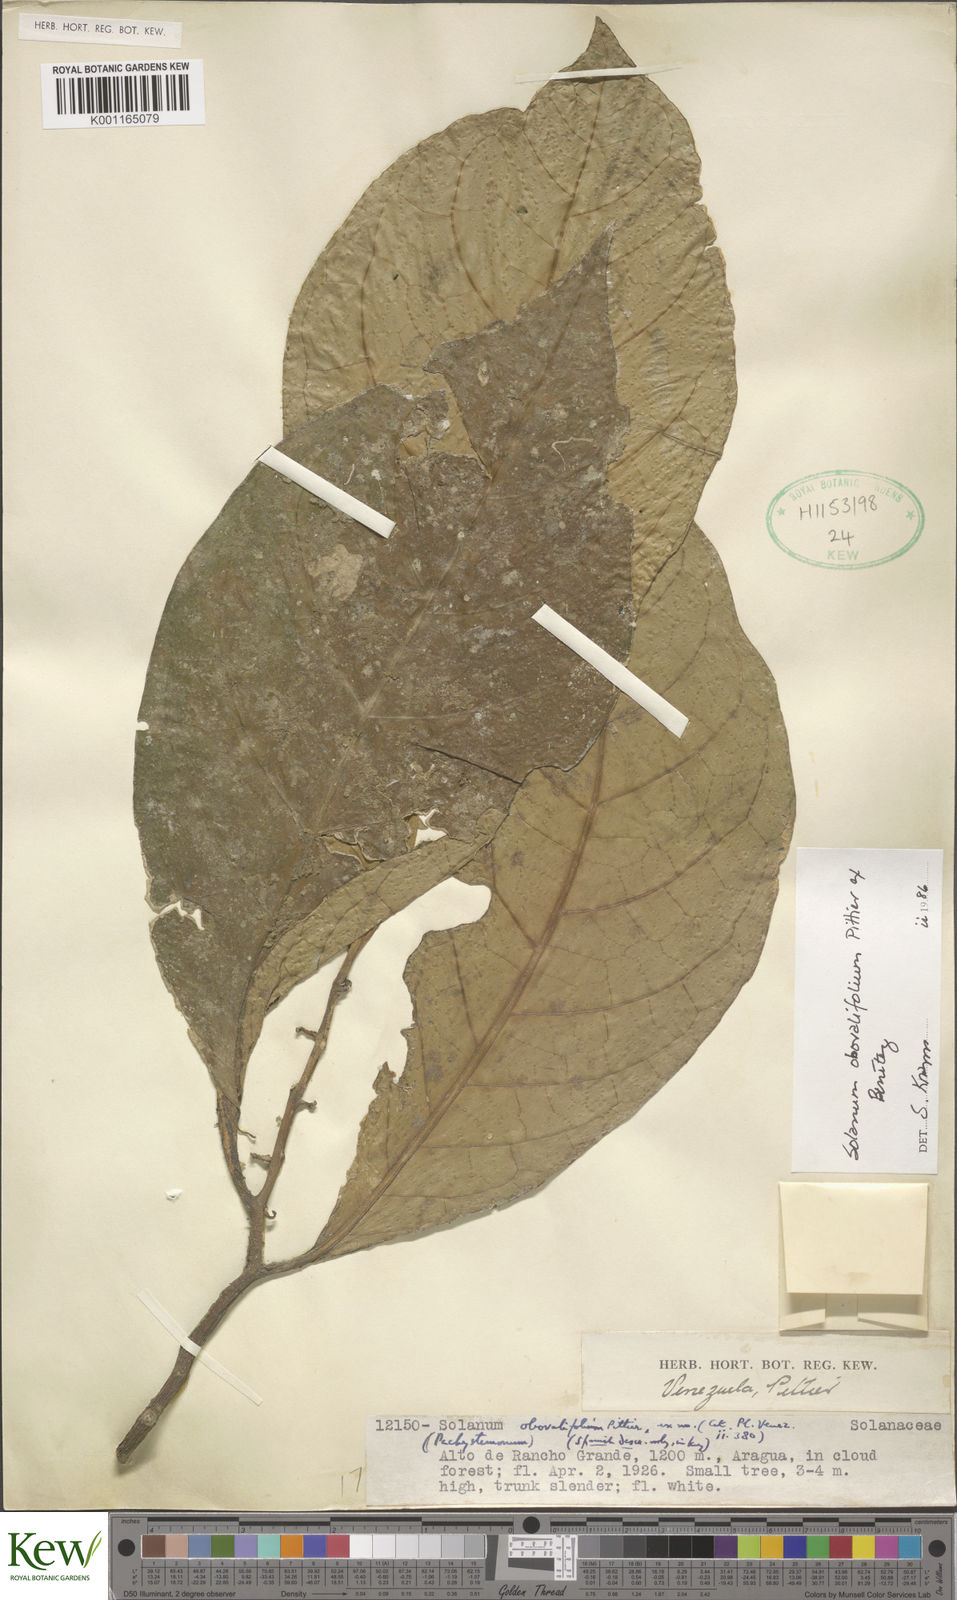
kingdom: Plantae
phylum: Tracheophyta
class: Magnoliopsida
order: Solanales
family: Solanaceae
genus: Solanum
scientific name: Solanum obovalifolium
